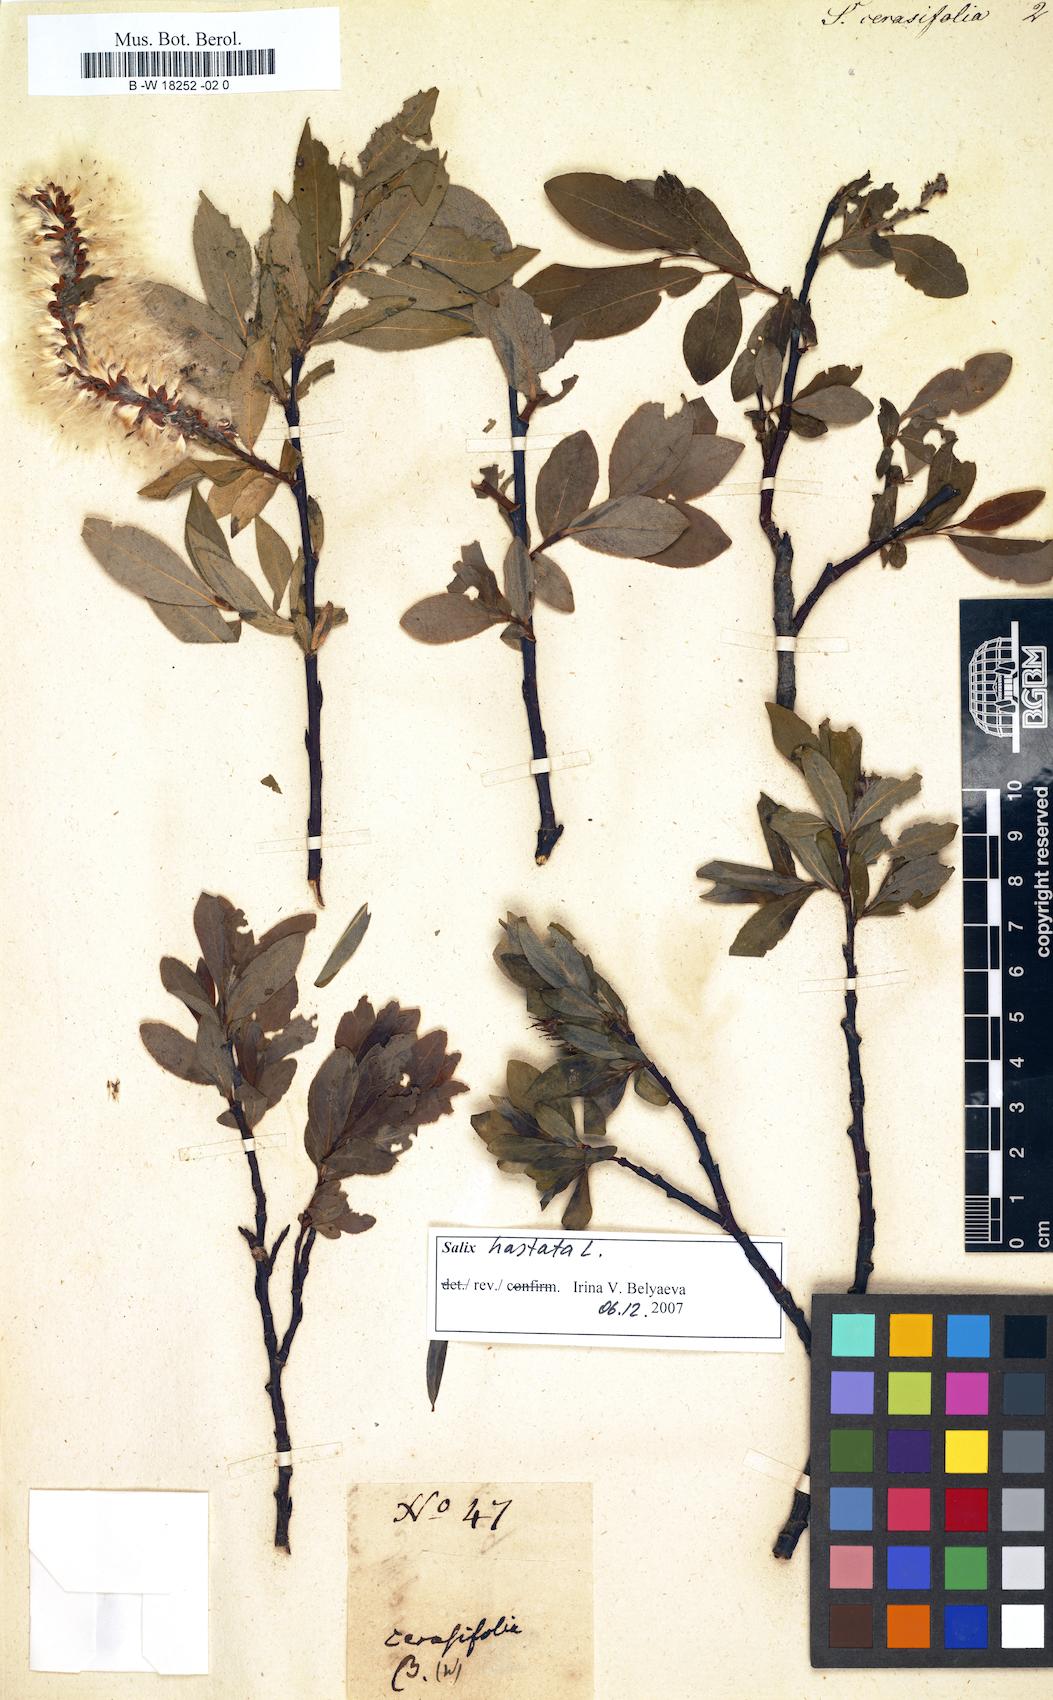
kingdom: Plantae
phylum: Tracheophyta
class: Magnoliopsida
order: Malpighiales
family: Salicaceae
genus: Salix
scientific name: Salix
